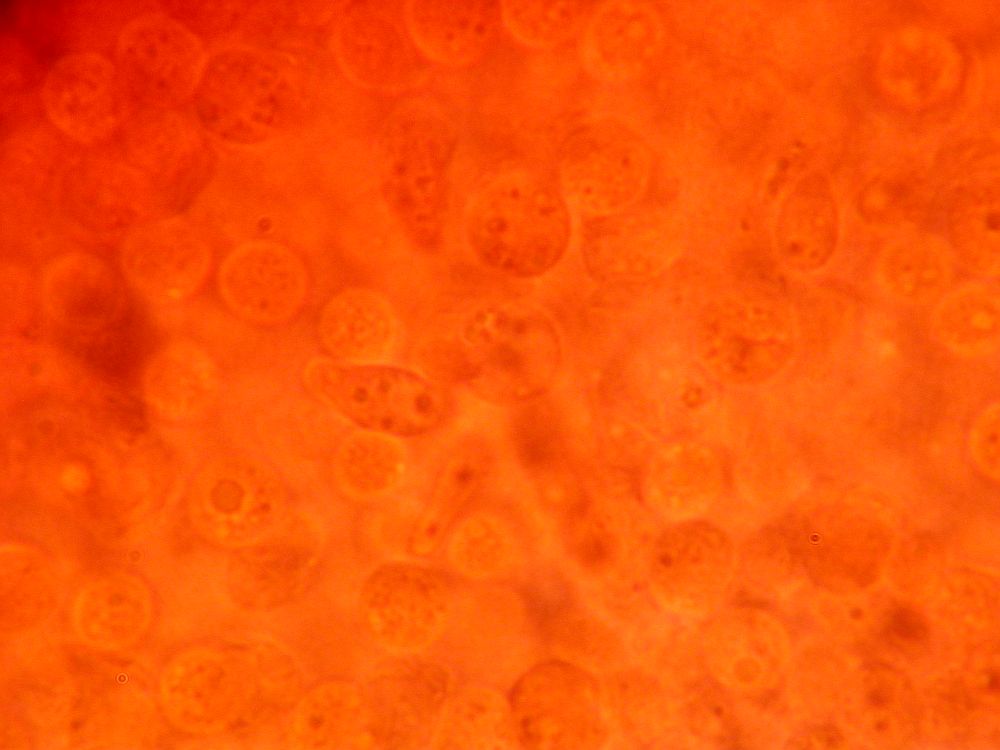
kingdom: Fungi
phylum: Basidiomycota
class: Agaricomycetes
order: Agaricales
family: Tricholomataceae
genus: Clitocybe
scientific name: Clitocybe metachroa
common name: grå tragthat
